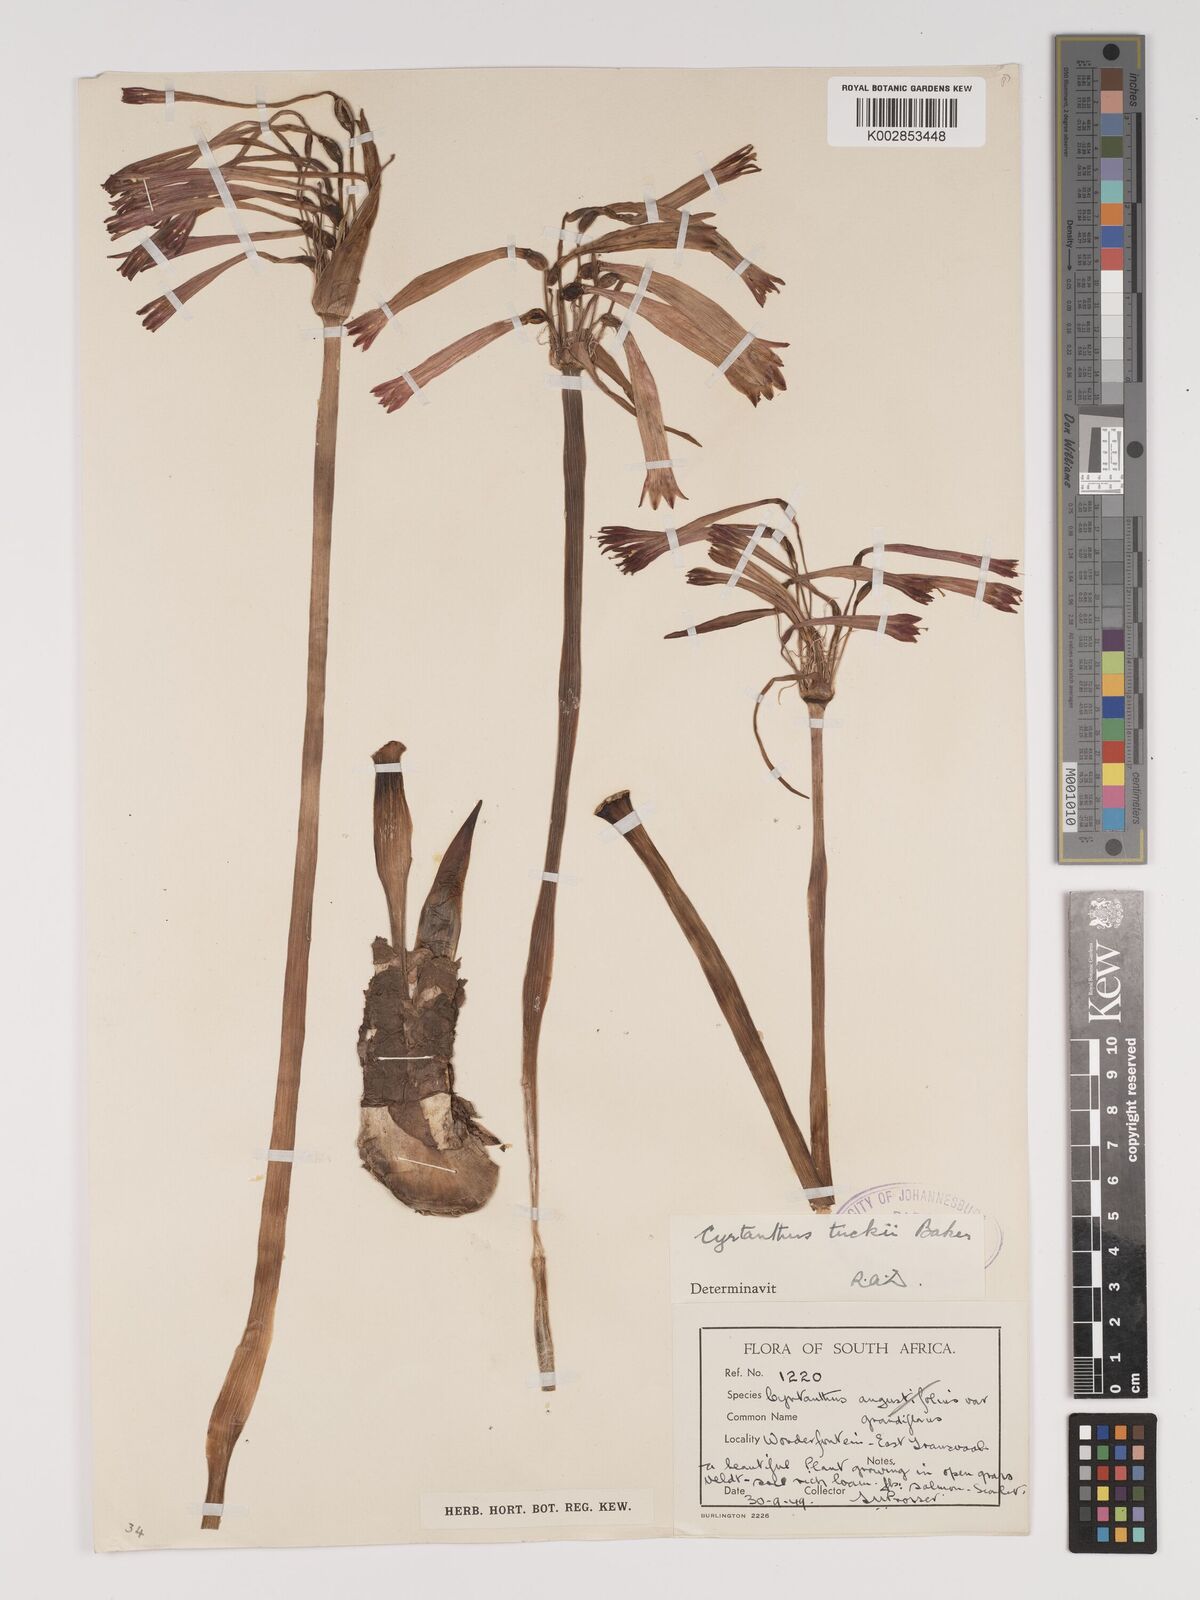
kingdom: Plantae
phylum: Tracheophyta
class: Liliopsida
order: Asparagales
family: Amaryllidaceae
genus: Cyrtanthus
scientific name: Cyrtanthus tuckii
